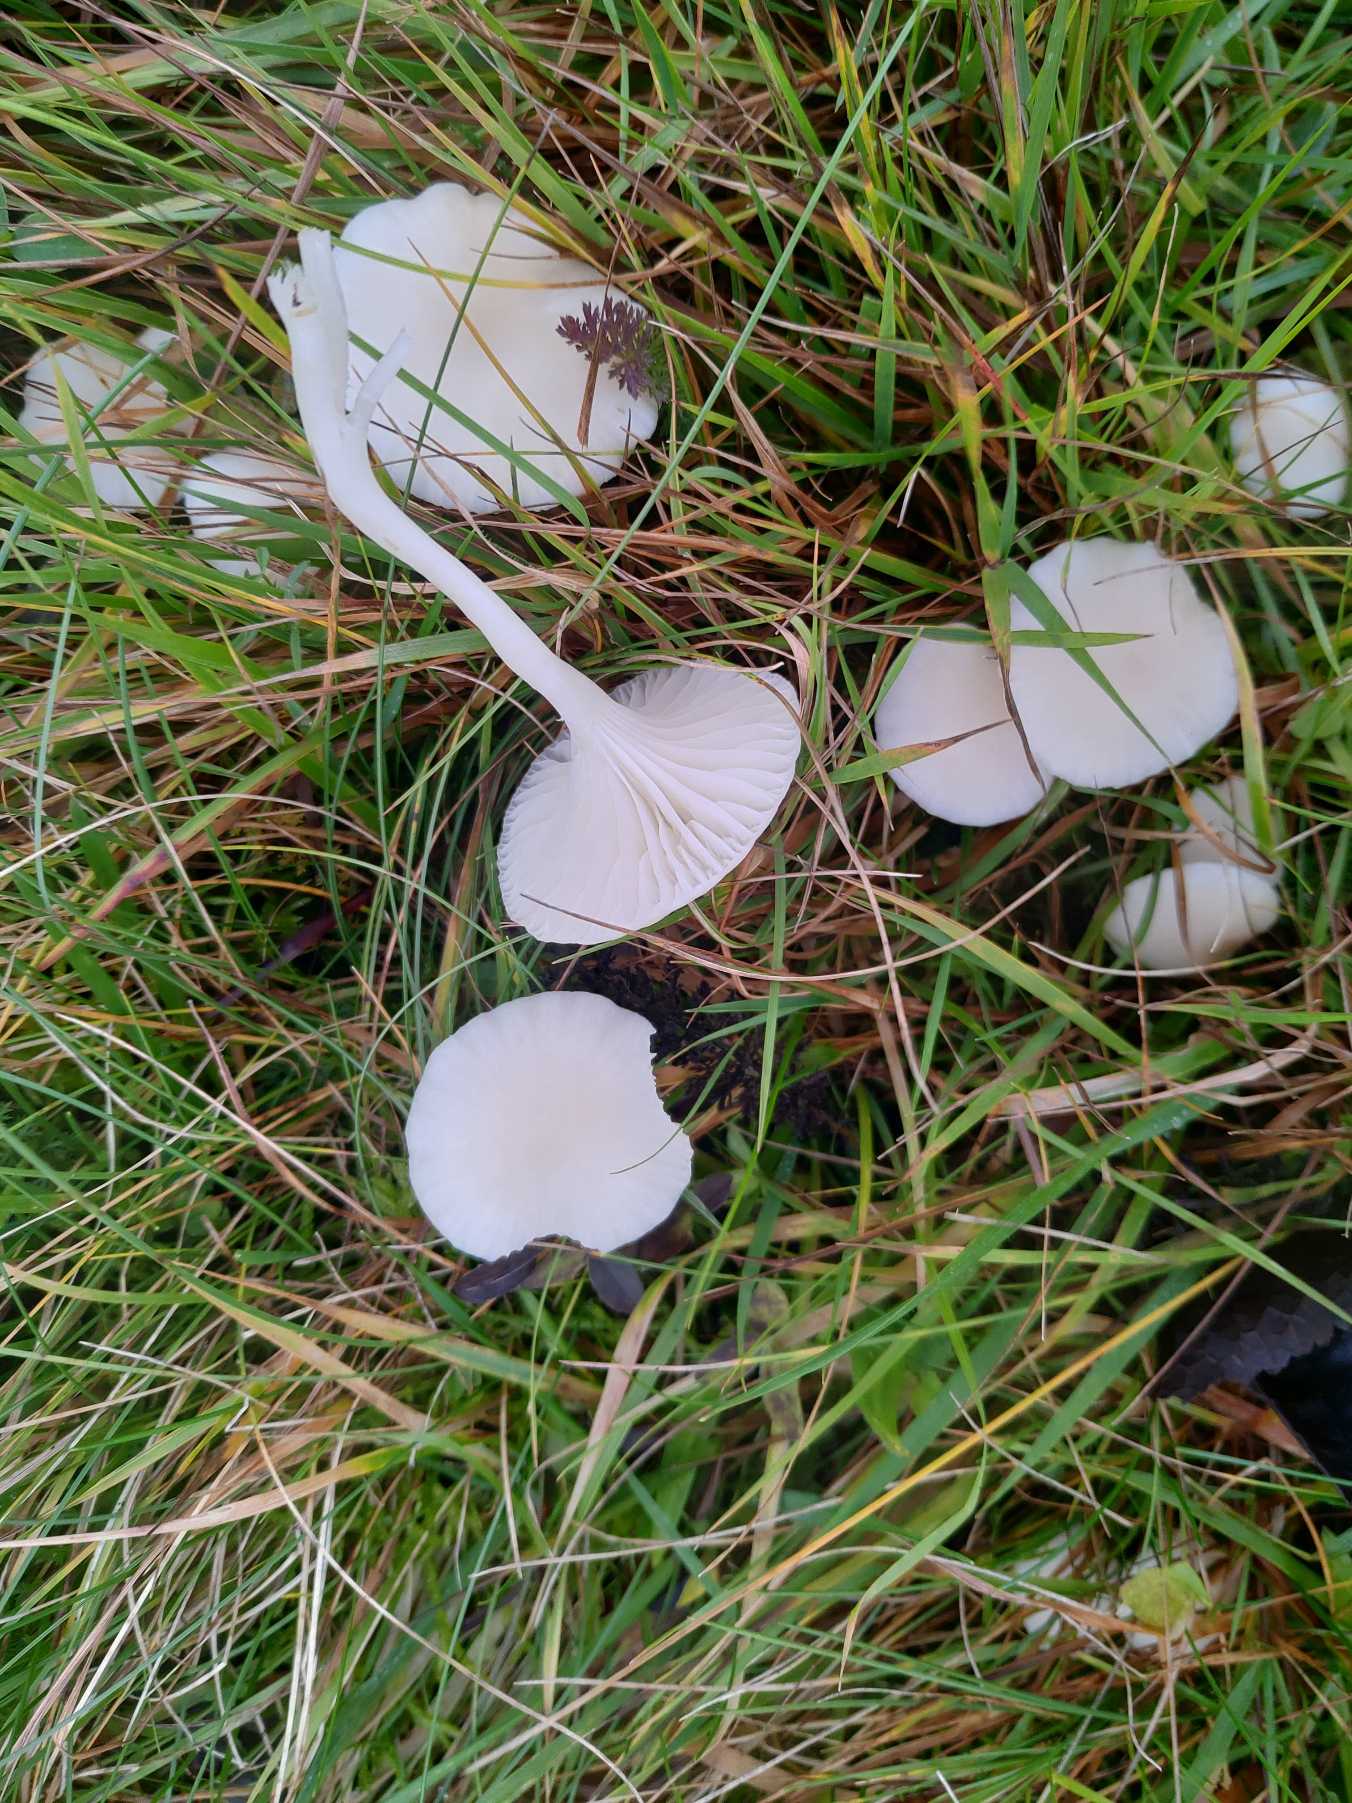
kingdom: Fungi
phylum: Basidiomycota
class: Agaricomycetes
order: Agaricales
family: Hygrophoraceae
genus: Cuphophyllus
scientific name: Cuphophyllus virgineus
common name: Snehvid vokshat
